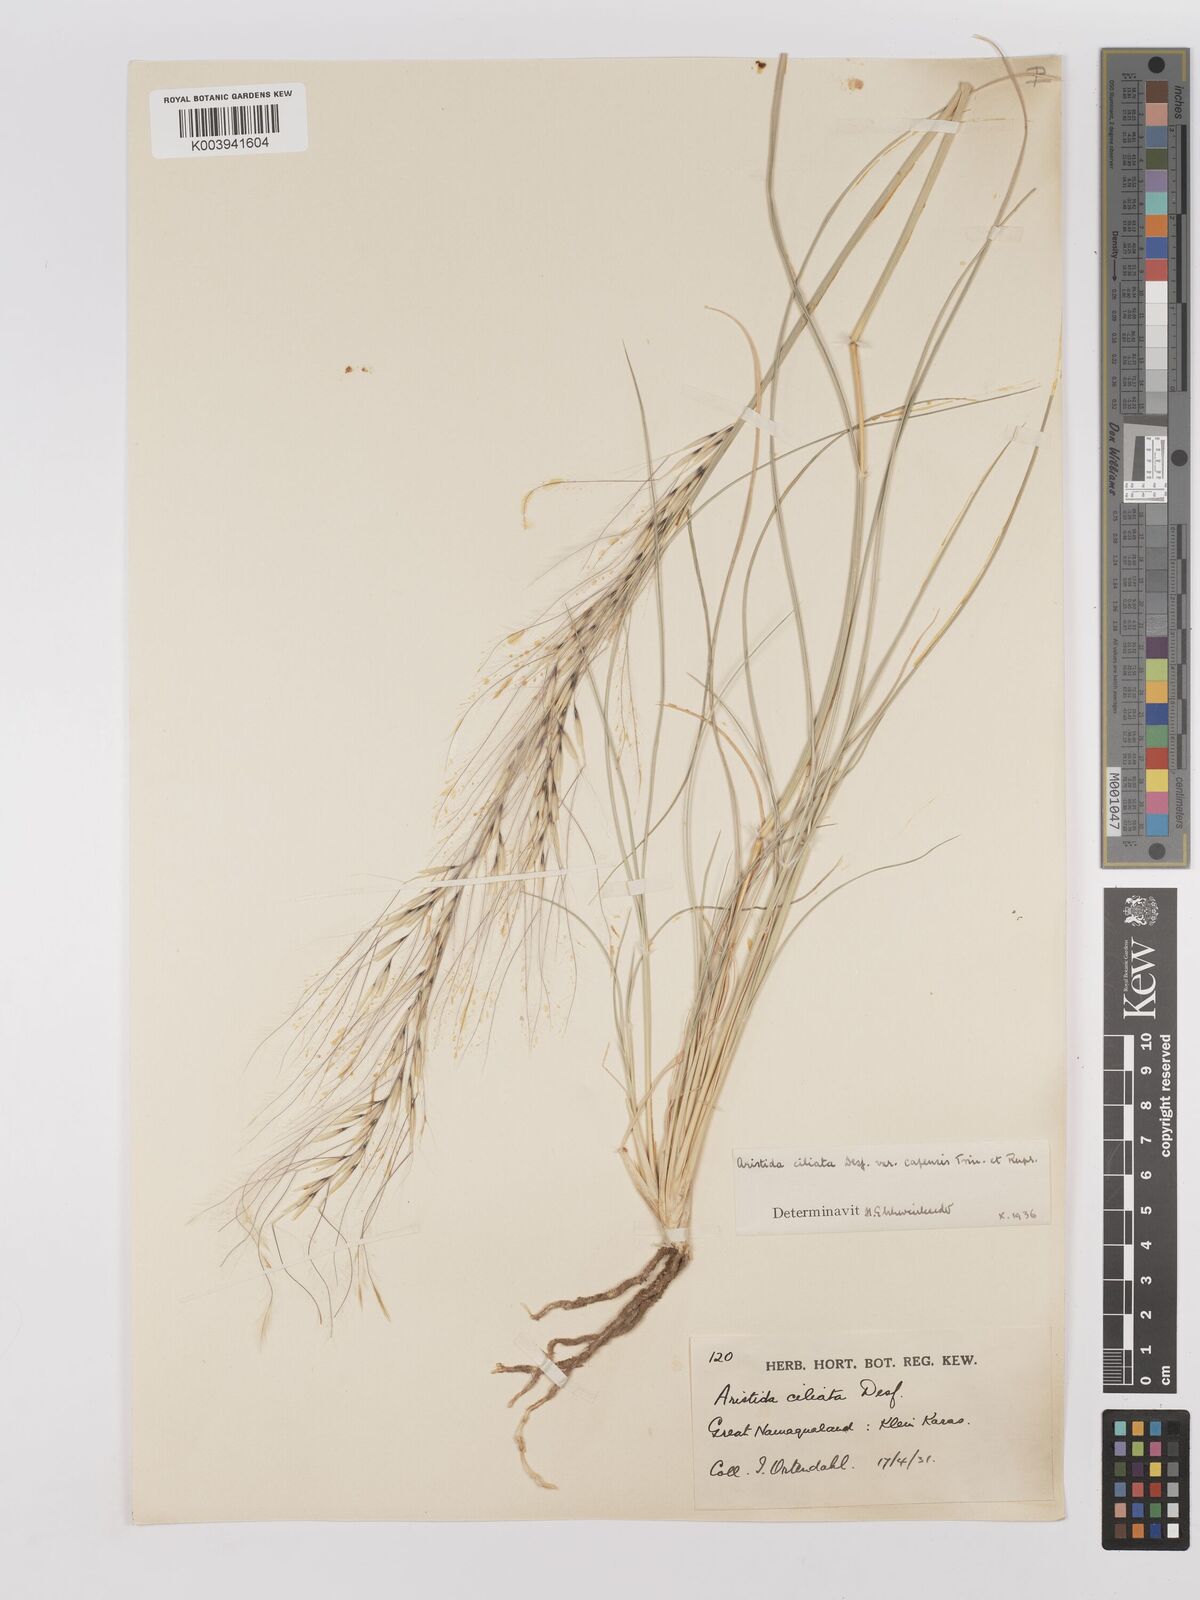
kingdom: Plantae
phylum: Tracheophyta
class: Liliopsida
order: Poales
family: Poaceae
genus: Stipagrostis
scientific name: Stipagrostis ciliata
